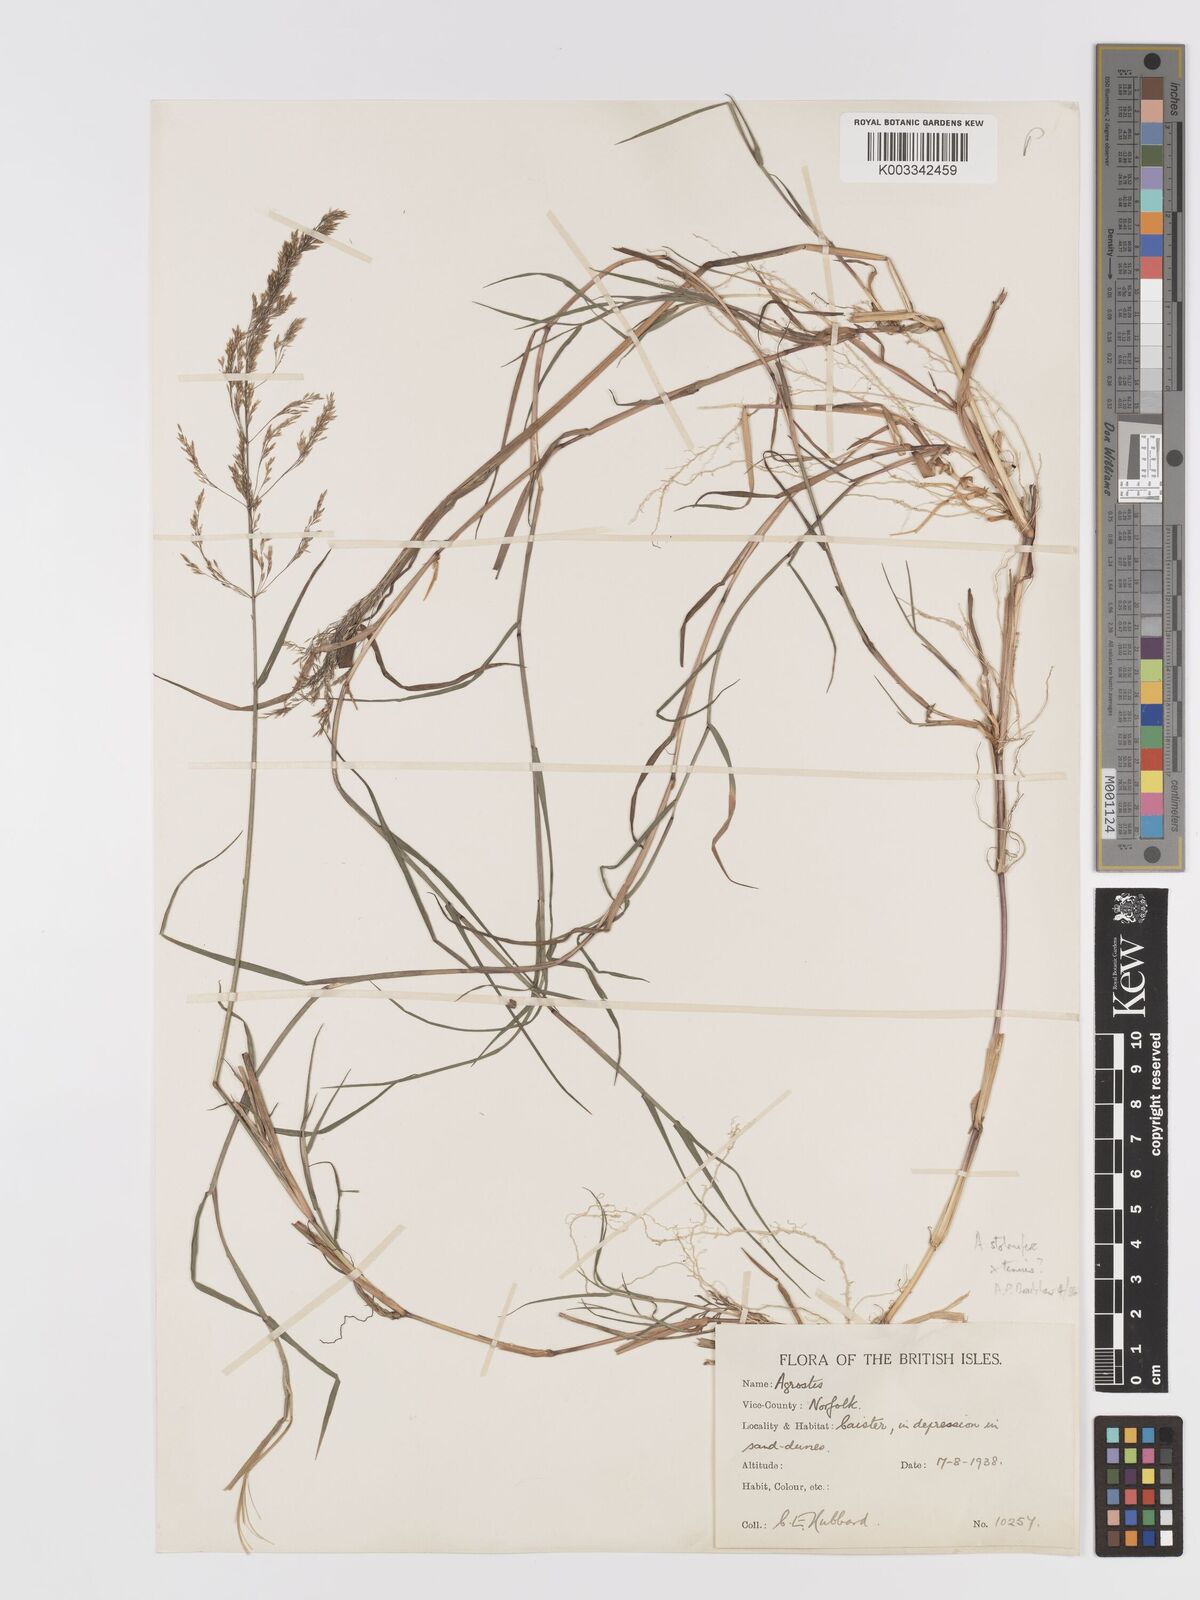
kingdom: Plantae
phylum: Tracheophyta
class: Liliopsida
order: Poales
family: Poaceae
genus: Agrostis
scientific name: Agrostis capillaris
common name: Colonial bentgrass
